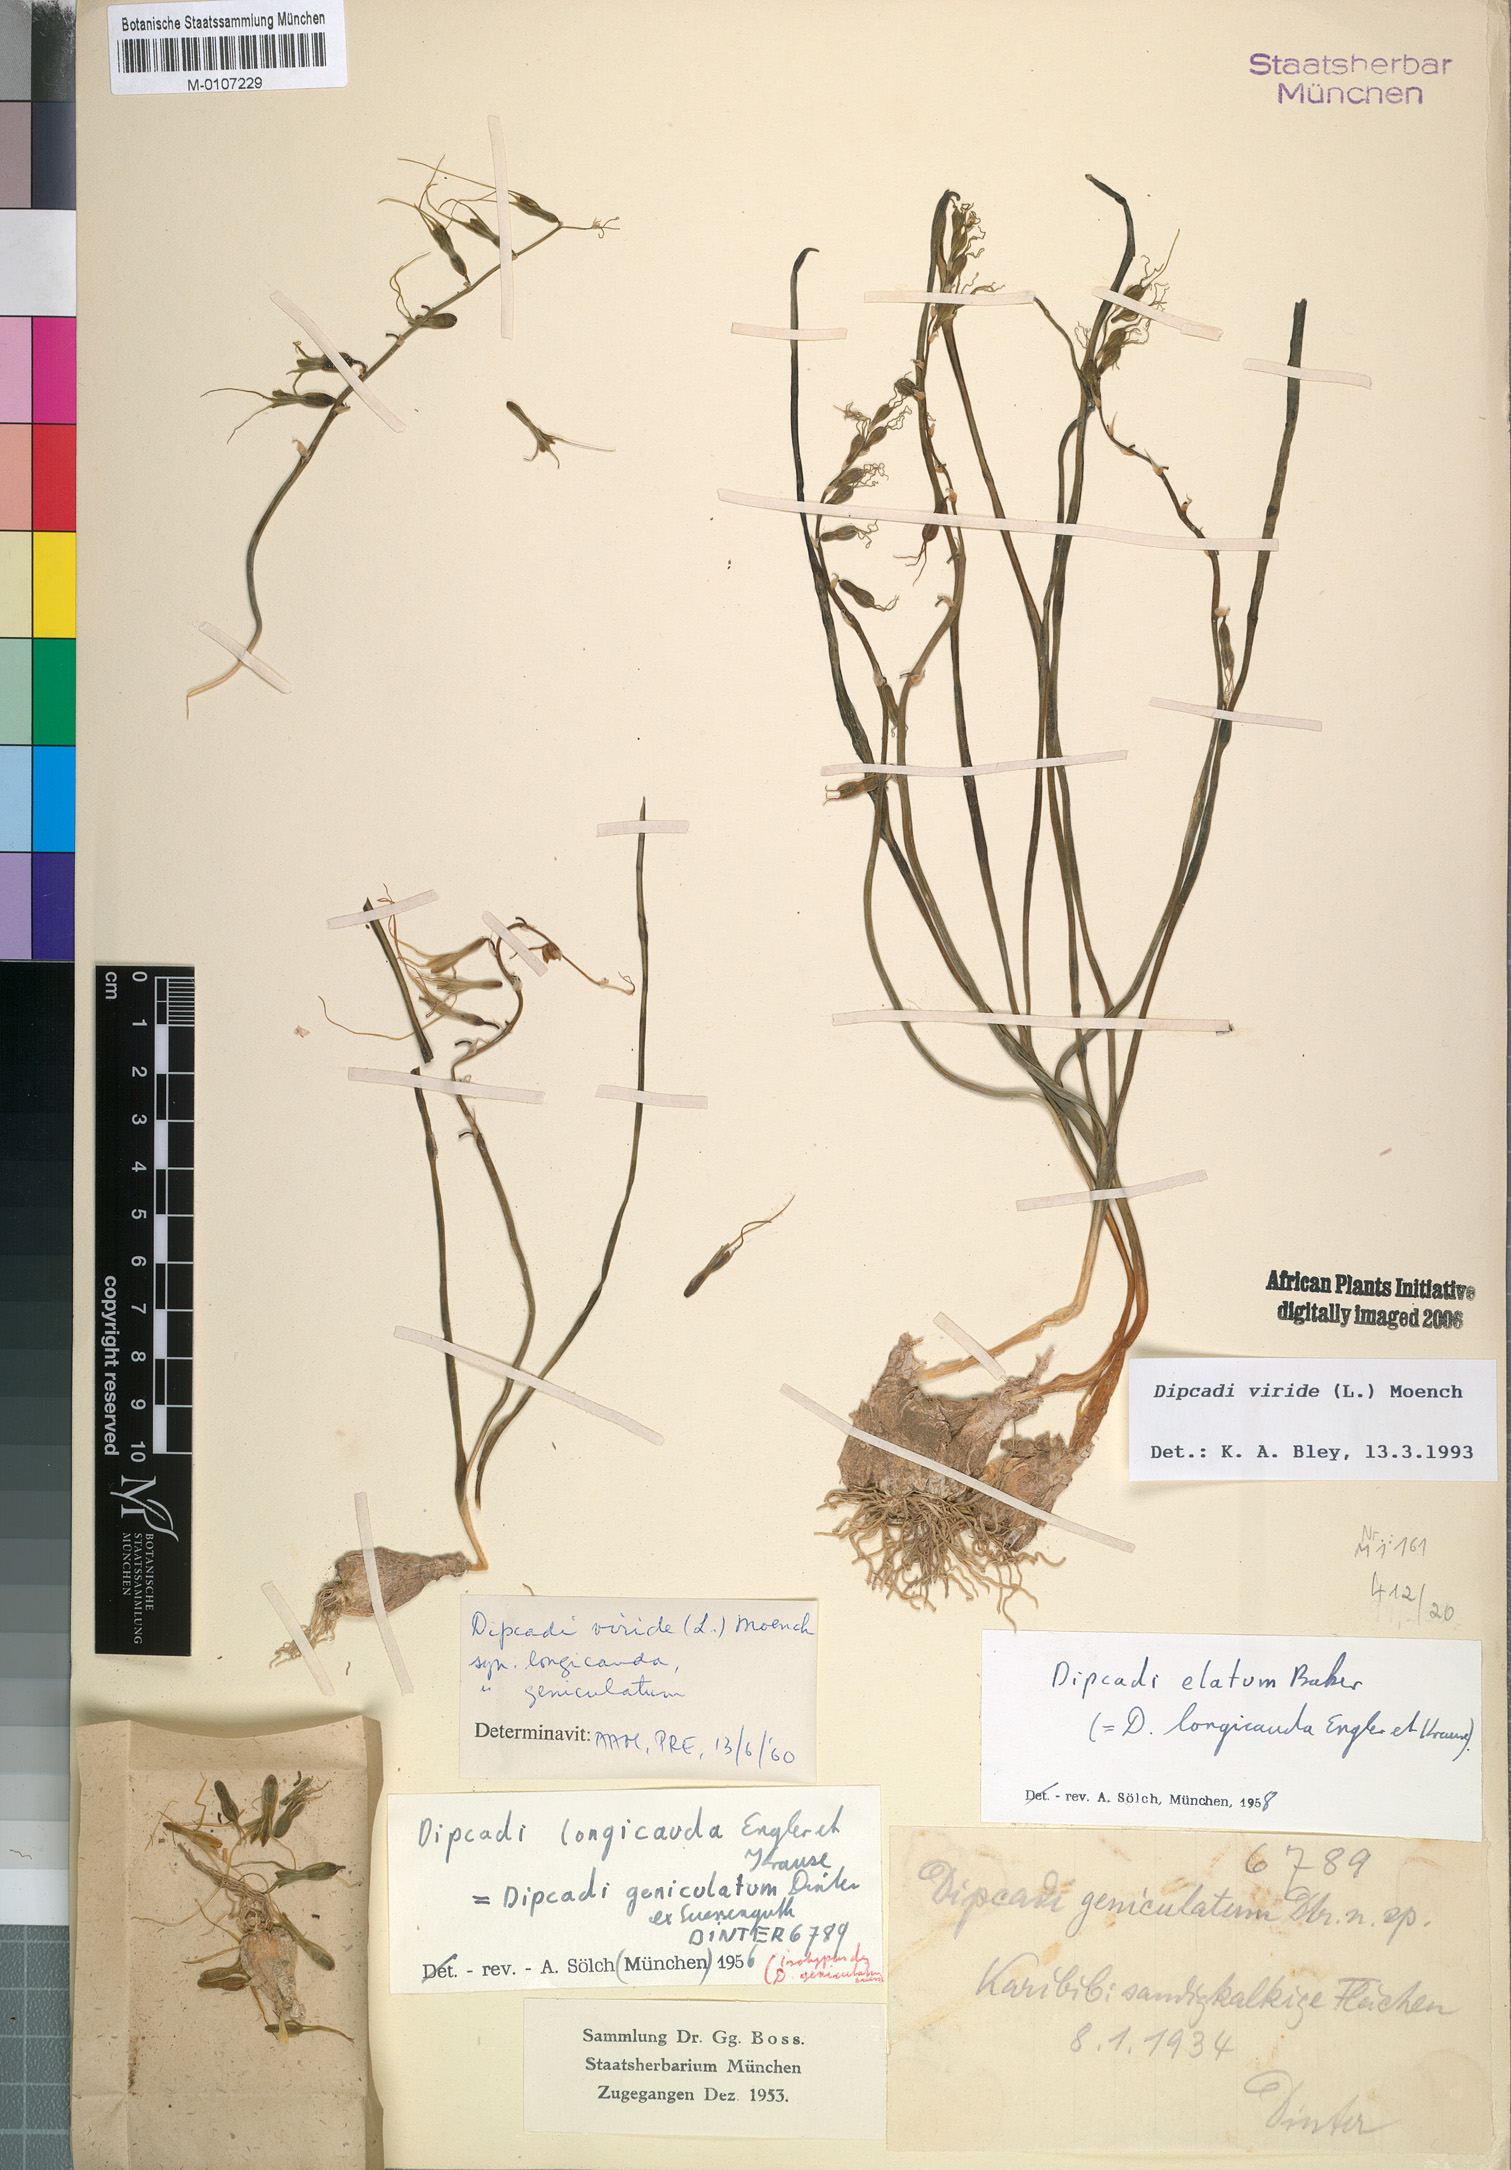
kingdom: Plantae
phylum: Tracheophyta
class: Liliopsida
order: Asparagales
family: Asparagaceae
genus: Dipcadi
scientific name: Dipcadi viride
